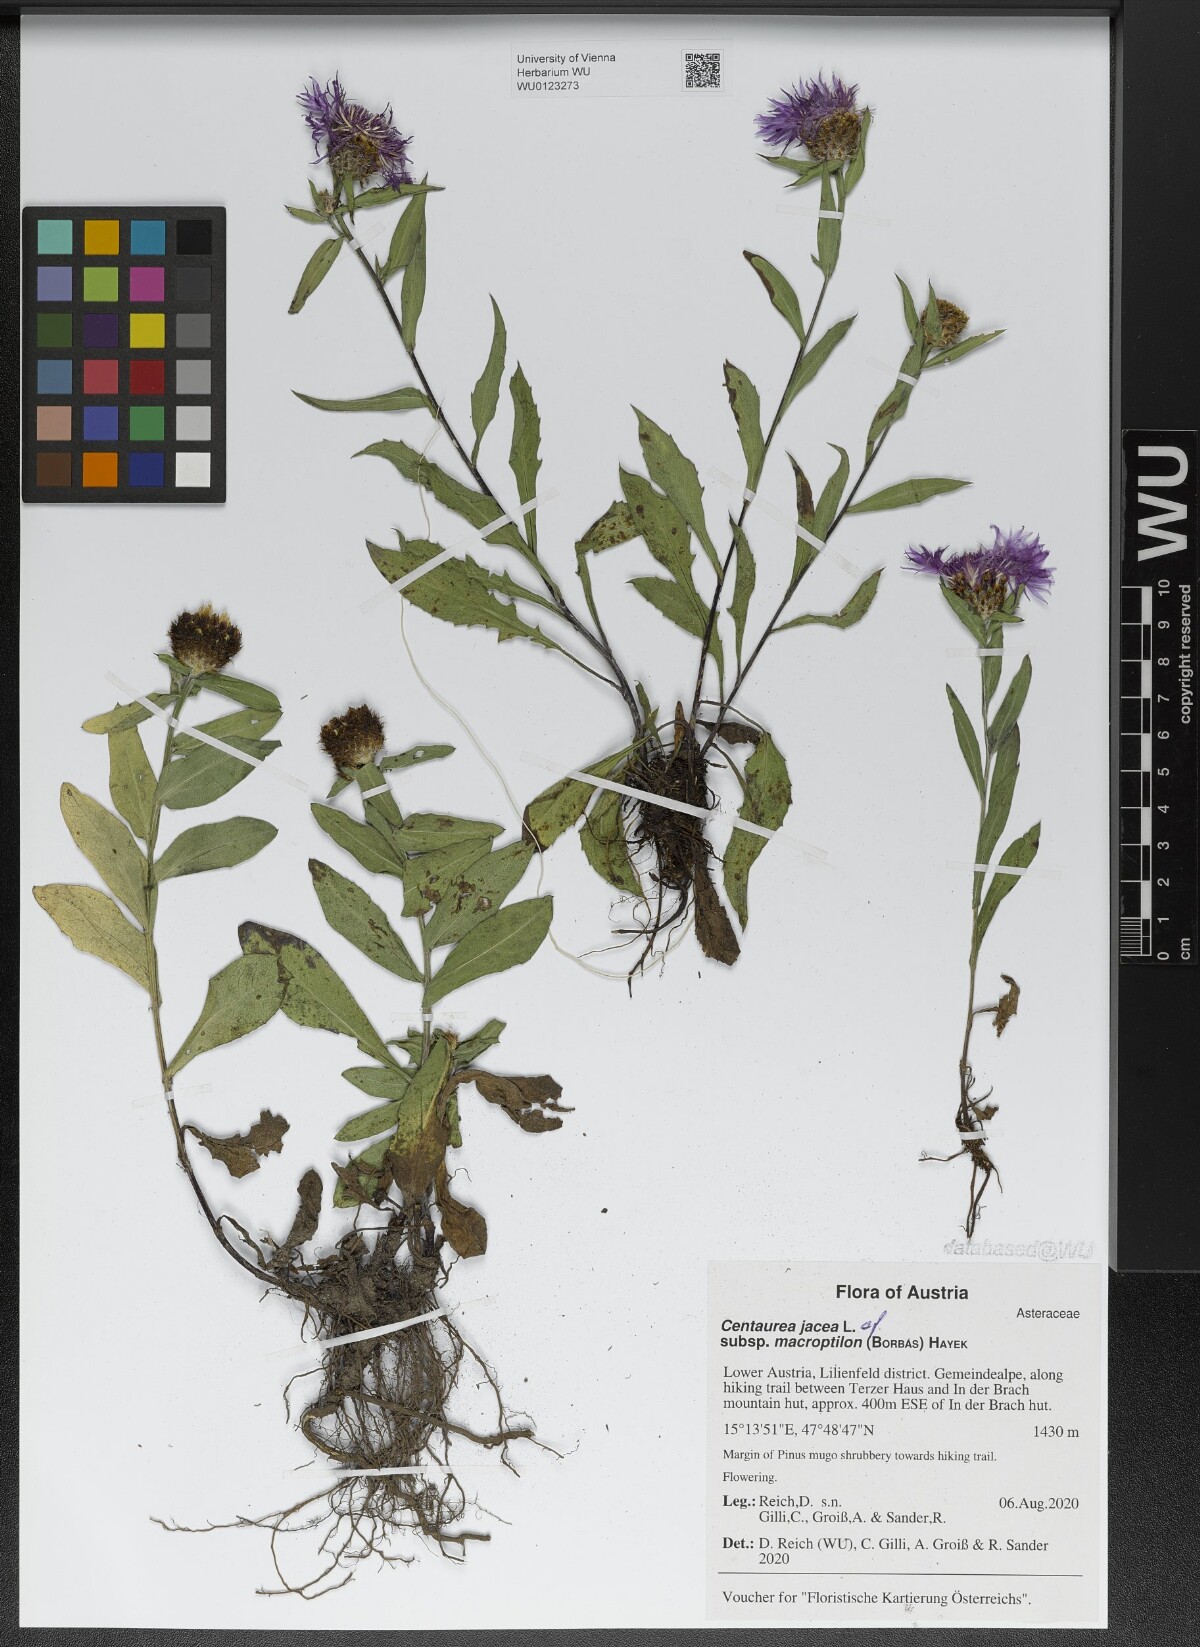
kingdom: Plantae
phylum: Tracheophyta
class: Magnoliopsida
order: Asterales
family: Asteraceae
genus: Centaurea
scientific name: Centaurea
